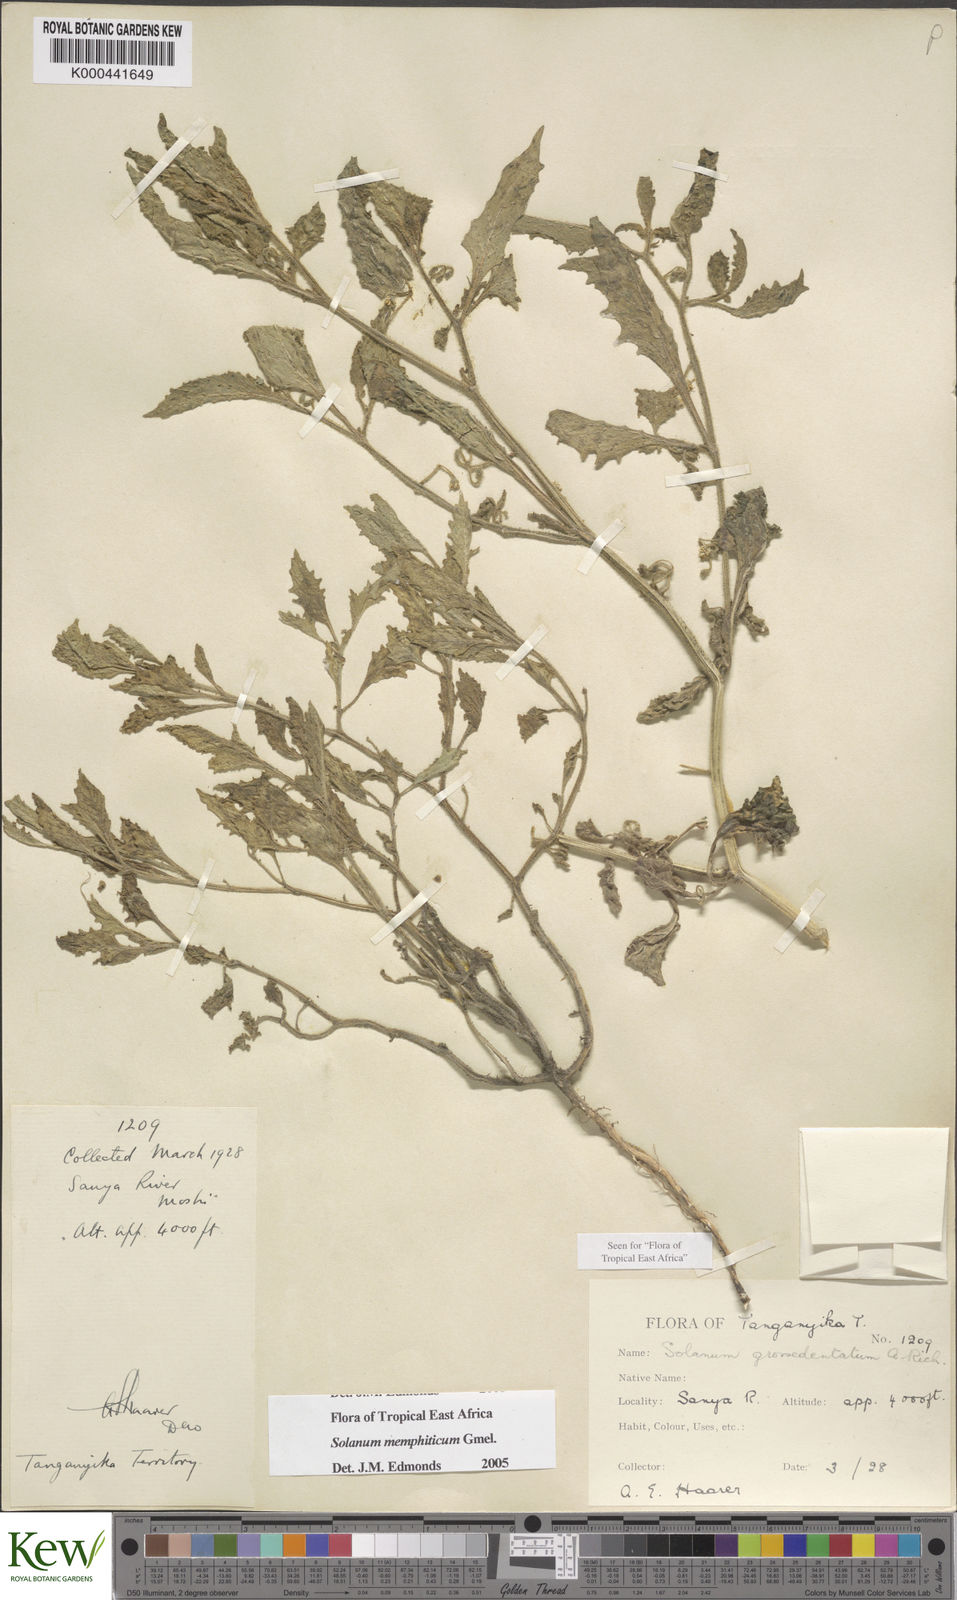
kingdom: Plantae
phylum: Tracheophyta
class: Magnoliopsida
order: Solanales
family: Solanaceae
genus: Solanum
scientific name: Solanum memphiticum
